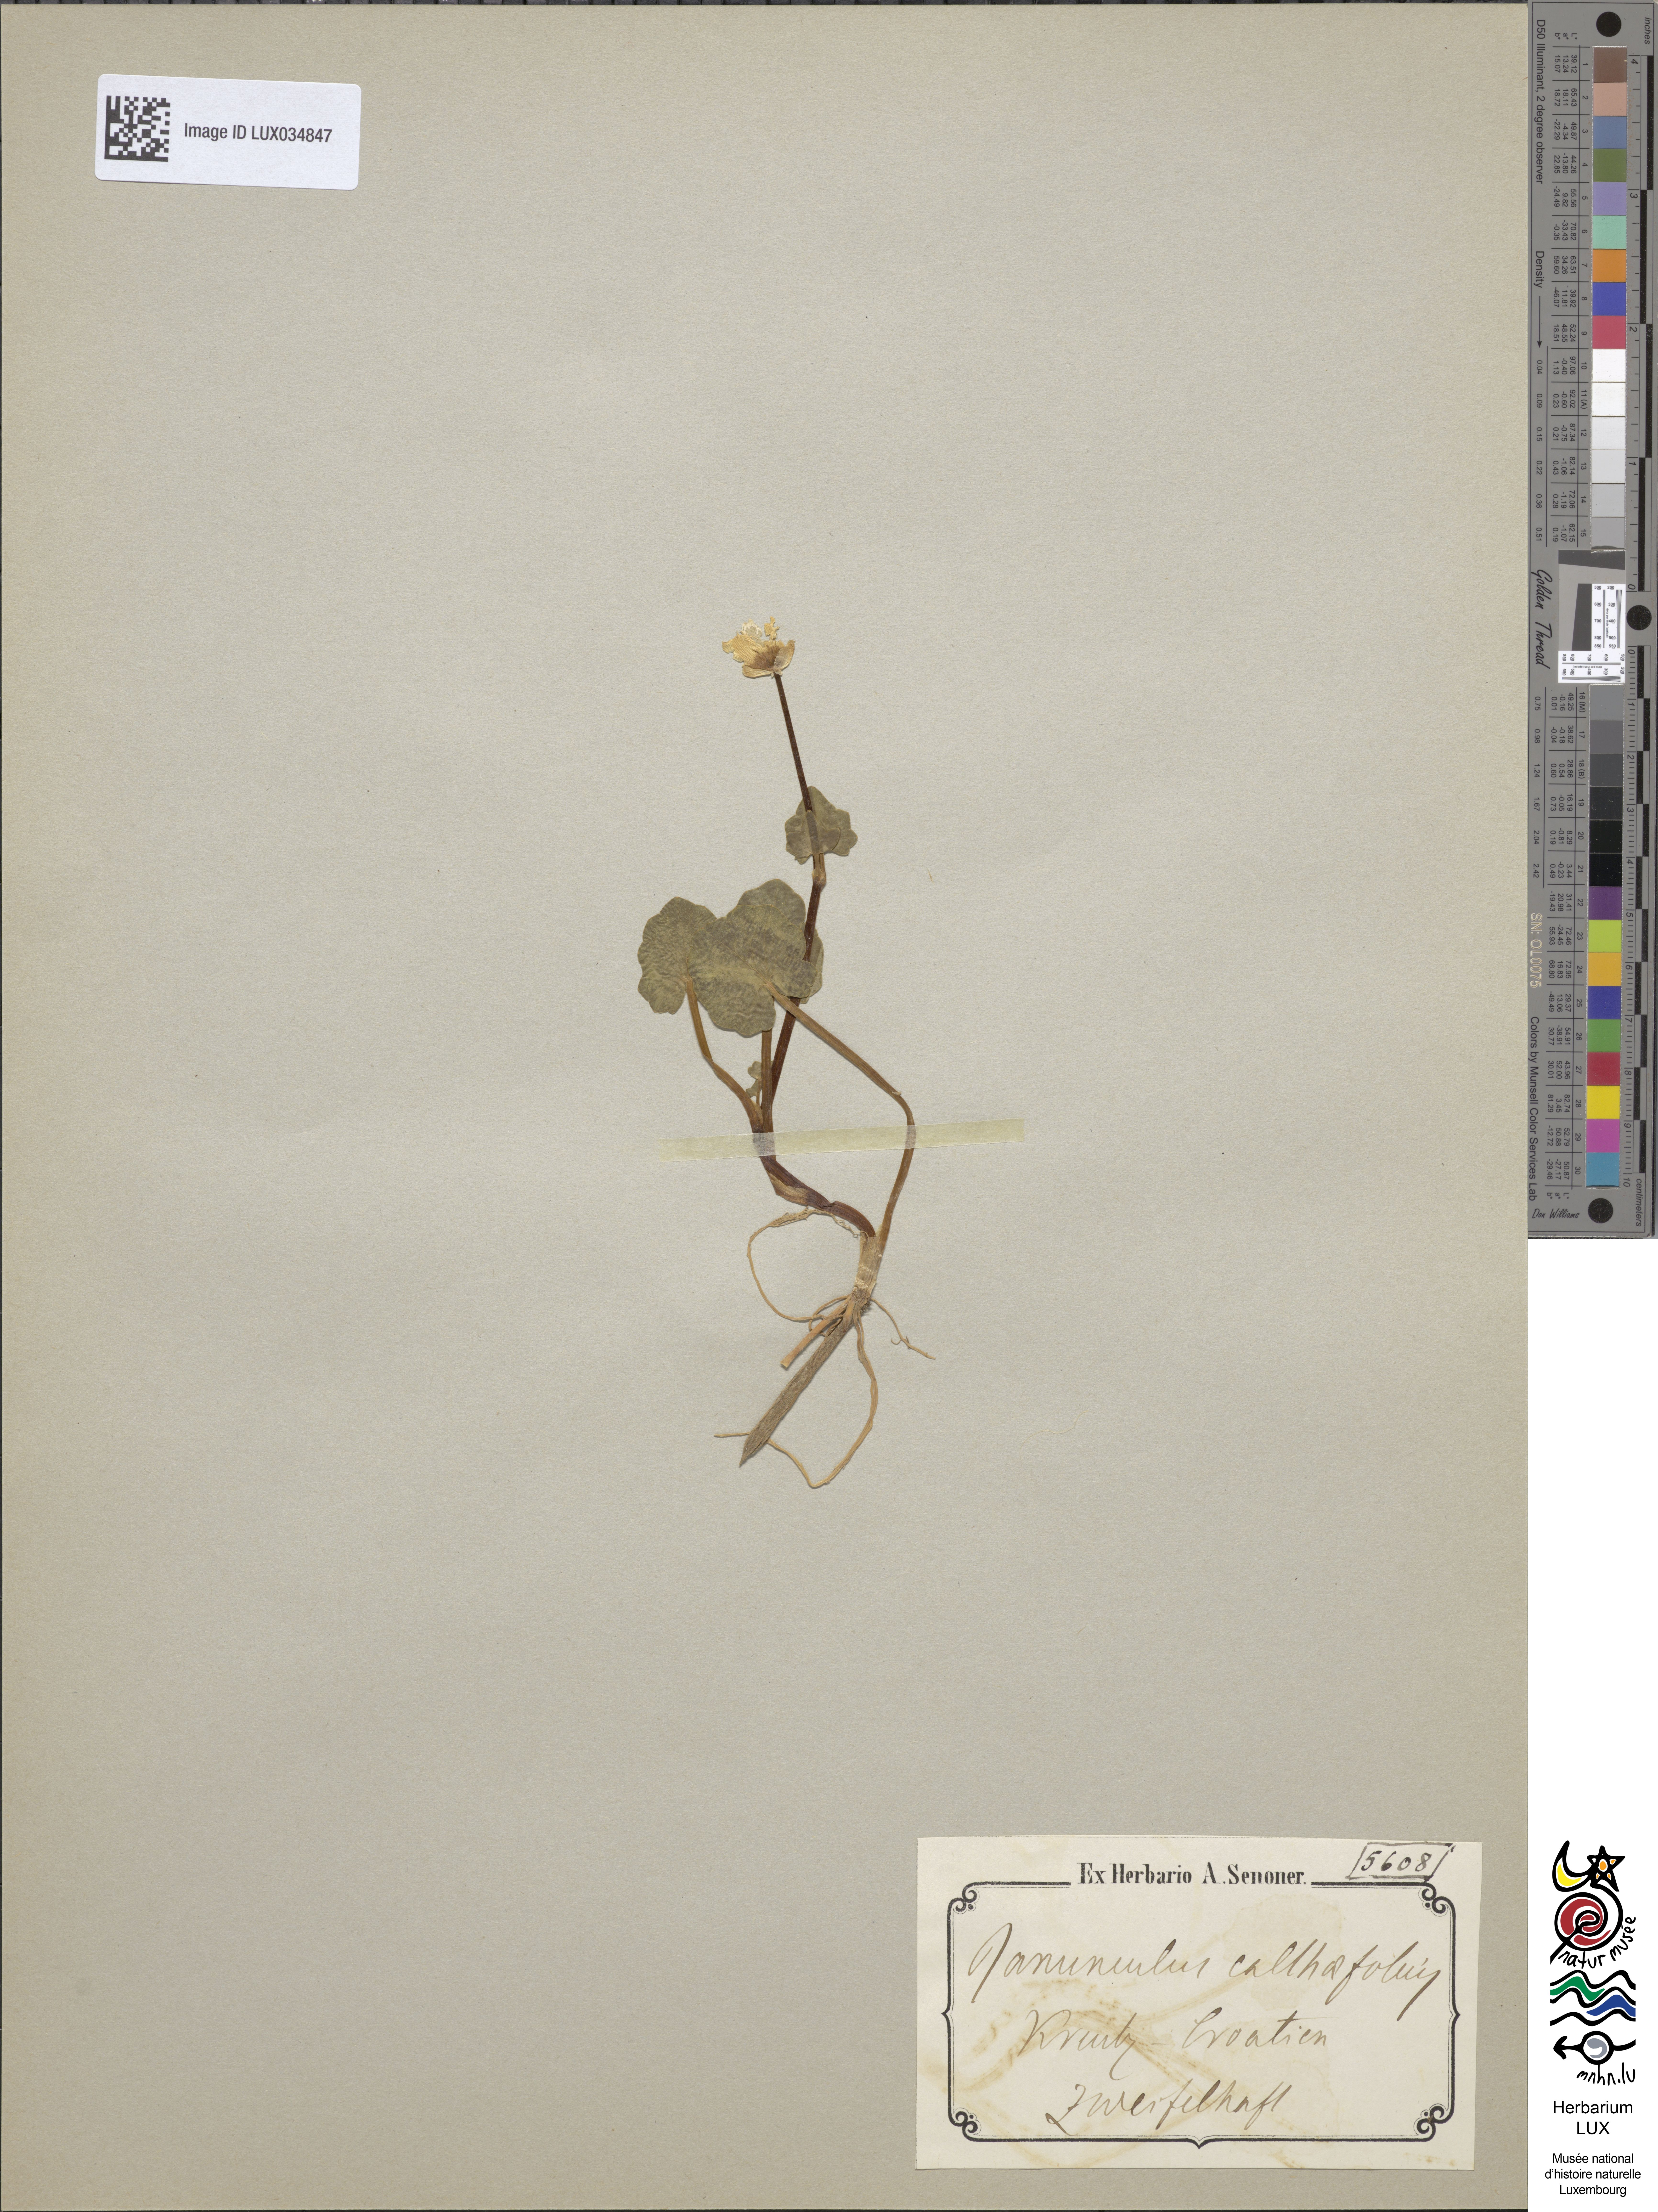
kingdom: Plantae
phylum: Tracheophyta
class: Magnoliopsida
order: Ranunculales
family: Ranunculaceae
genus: Ficaria
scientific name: Ficaria calthifolia
